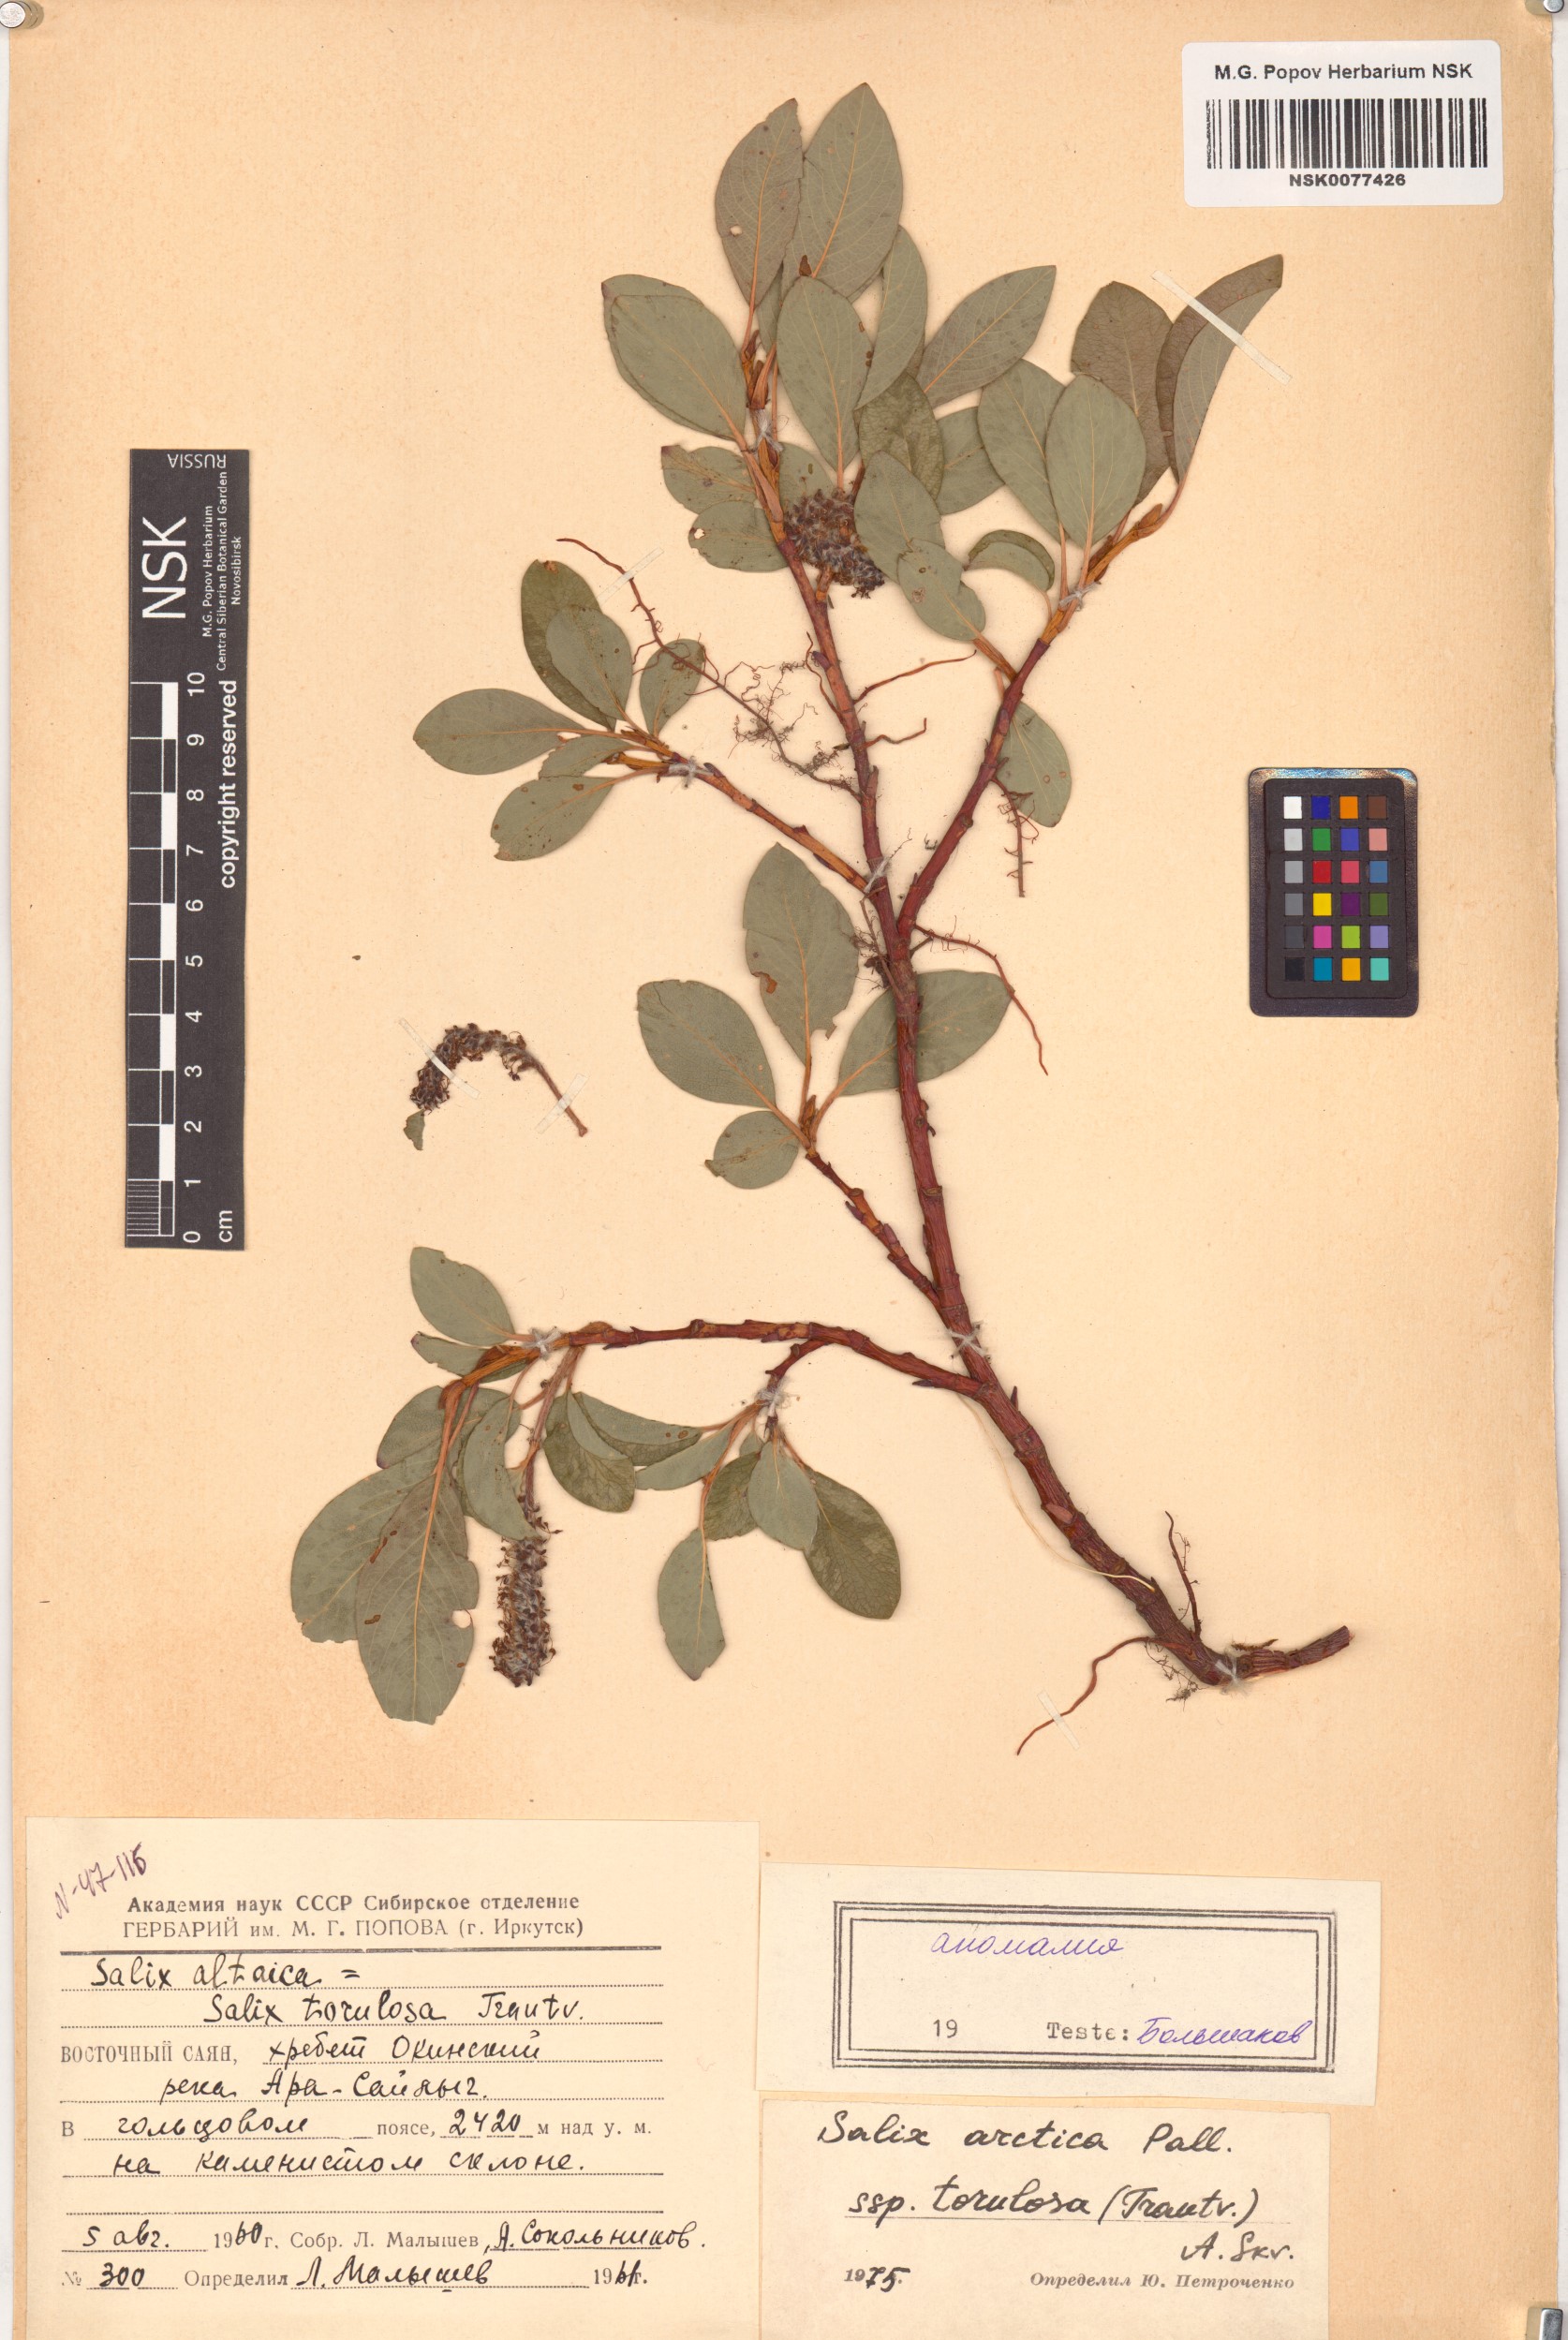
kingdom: Plantae
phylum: Tracheophyta
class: Magnoliopsida
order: Malpighiales
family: Salicaceae
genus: Salix
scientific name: Salix arctica
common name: Arctic willow
